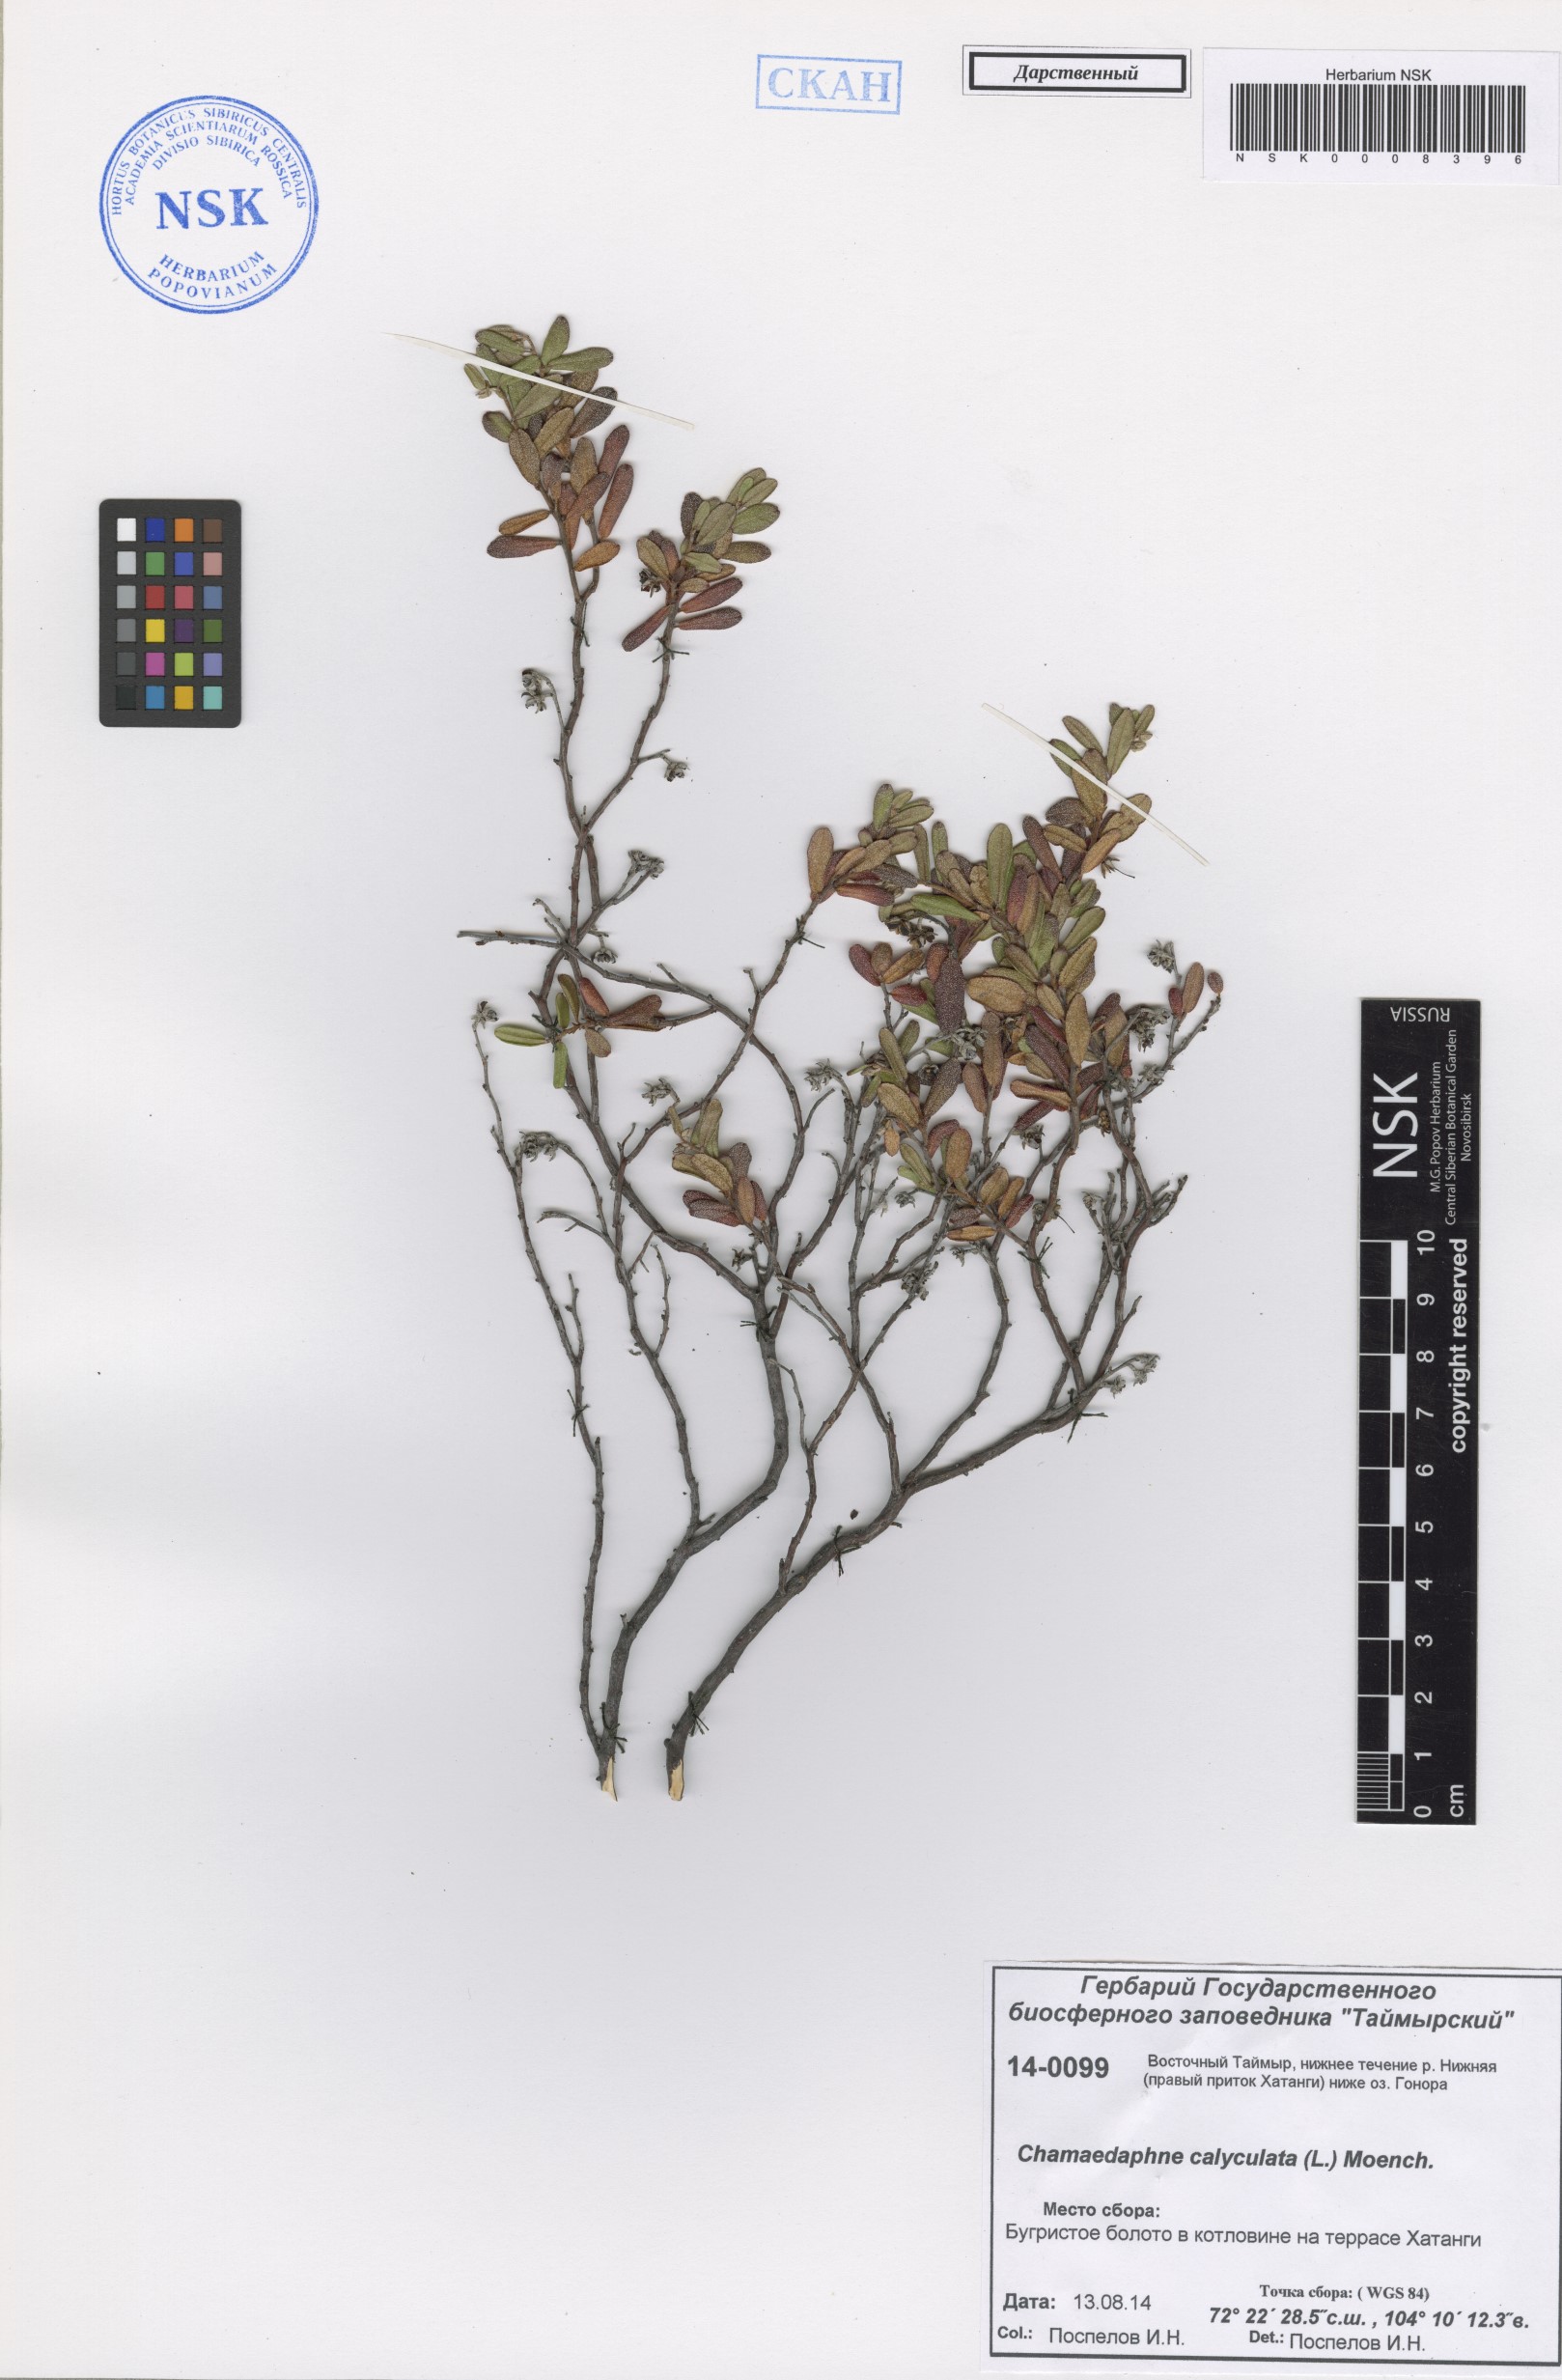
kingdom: Plantae
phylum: Tracheophyta
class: Magnoliopsida
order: Ericales
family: Ericaceae
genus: Chamaedaphne
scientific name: Chamaedaphne calyculata
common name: Leatherleaf
